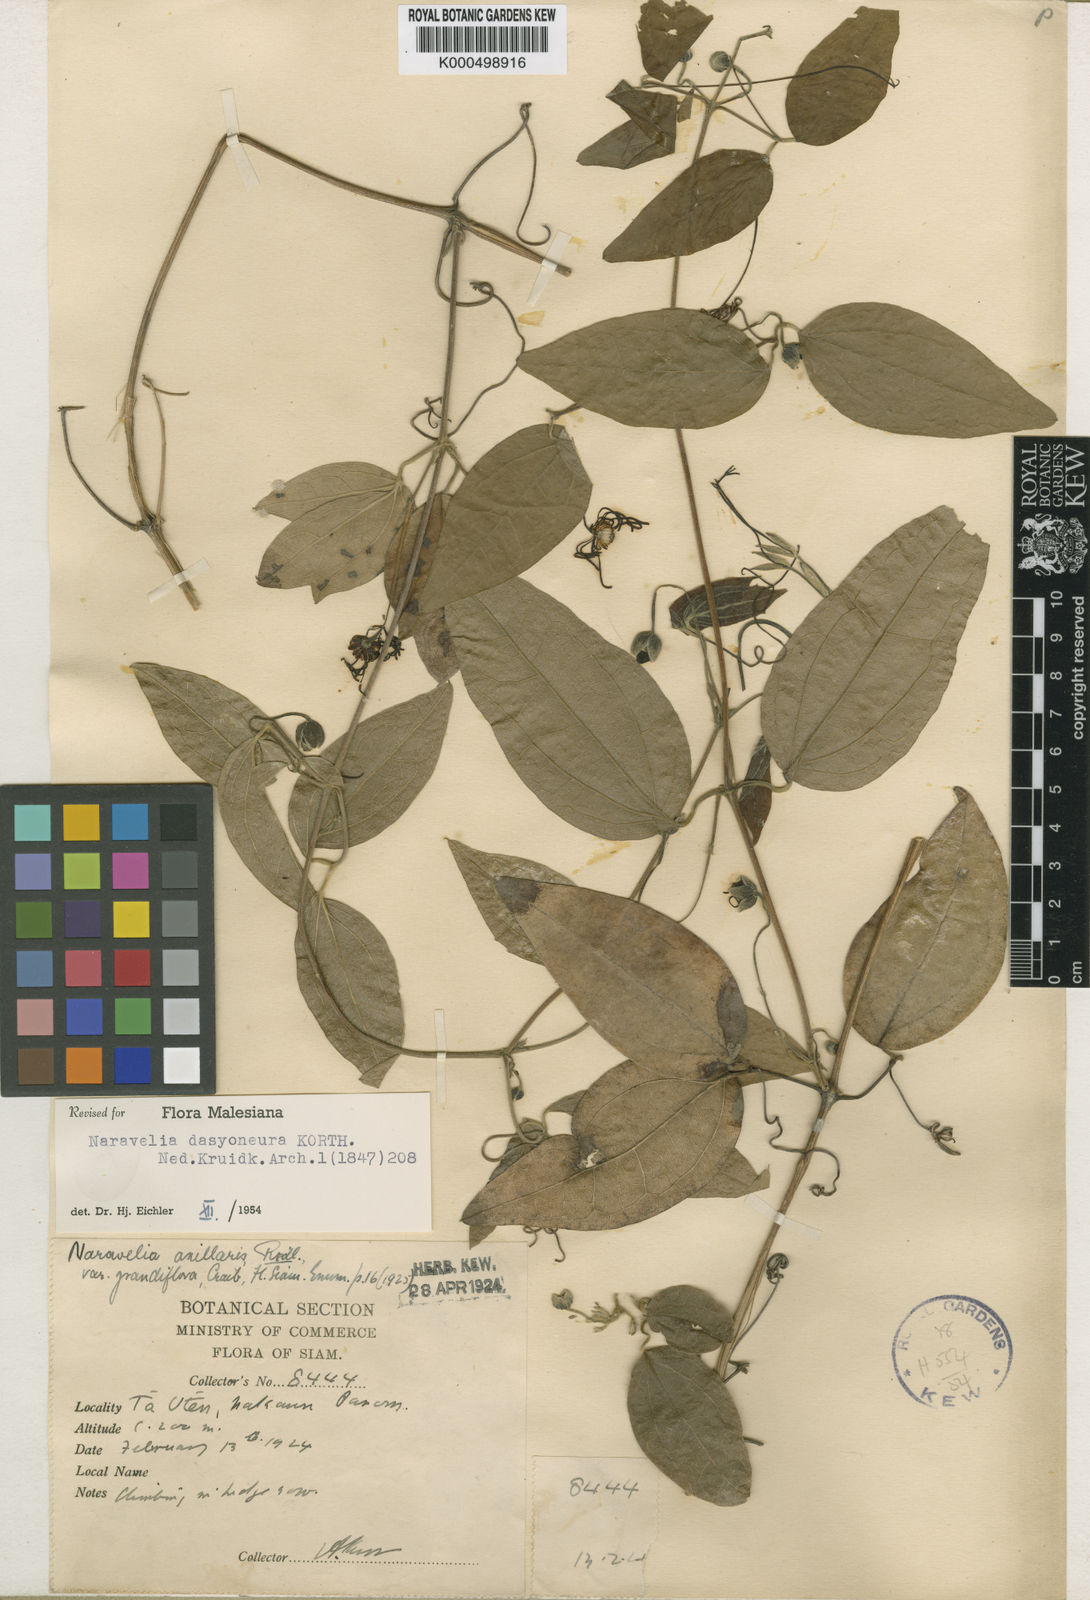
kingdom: Plantae
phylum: Tracheophyta
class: Magnoliopsida
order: Ranunculales
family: Ranunculaceae
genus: Clematis
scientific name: Clematis dasyoneura
